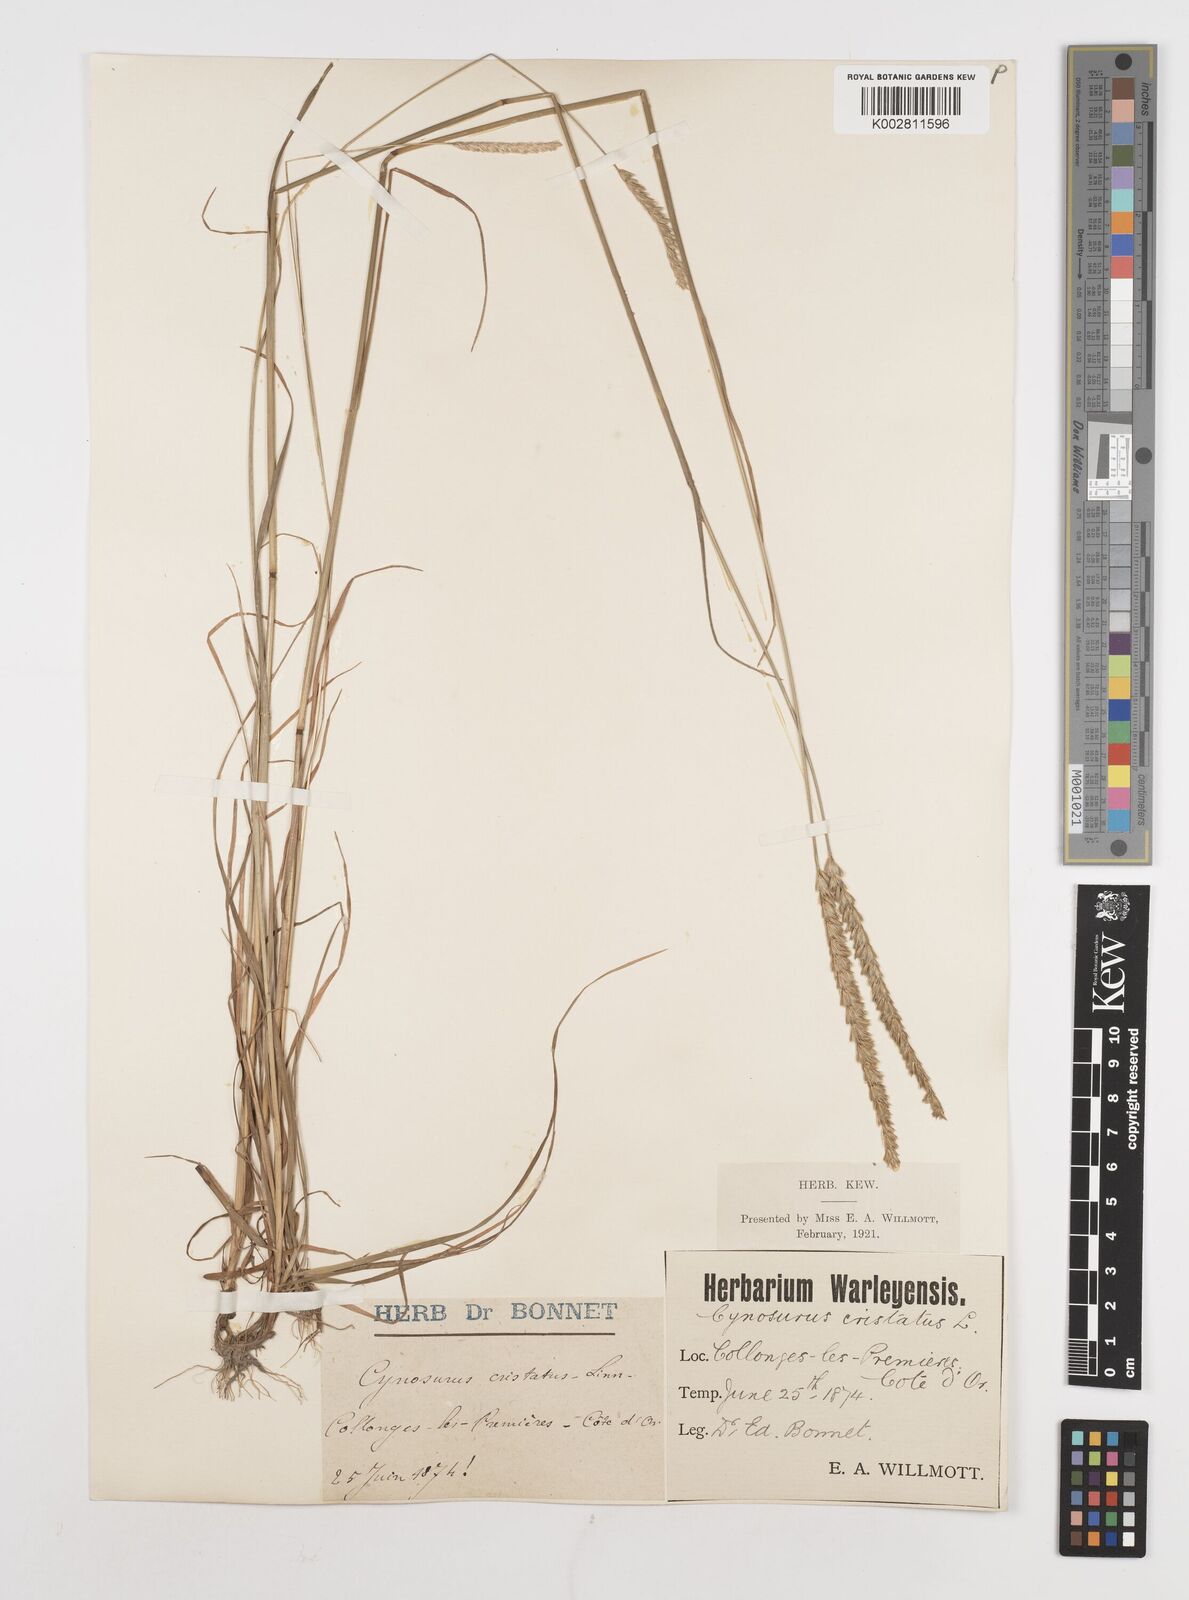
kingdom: Plantae
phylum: Tracheophyta
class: Liliopsida
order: Poales
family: Poaceae
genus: Cynosurus
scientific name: Cynosurus cristatus
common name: Crested dog's-tail
